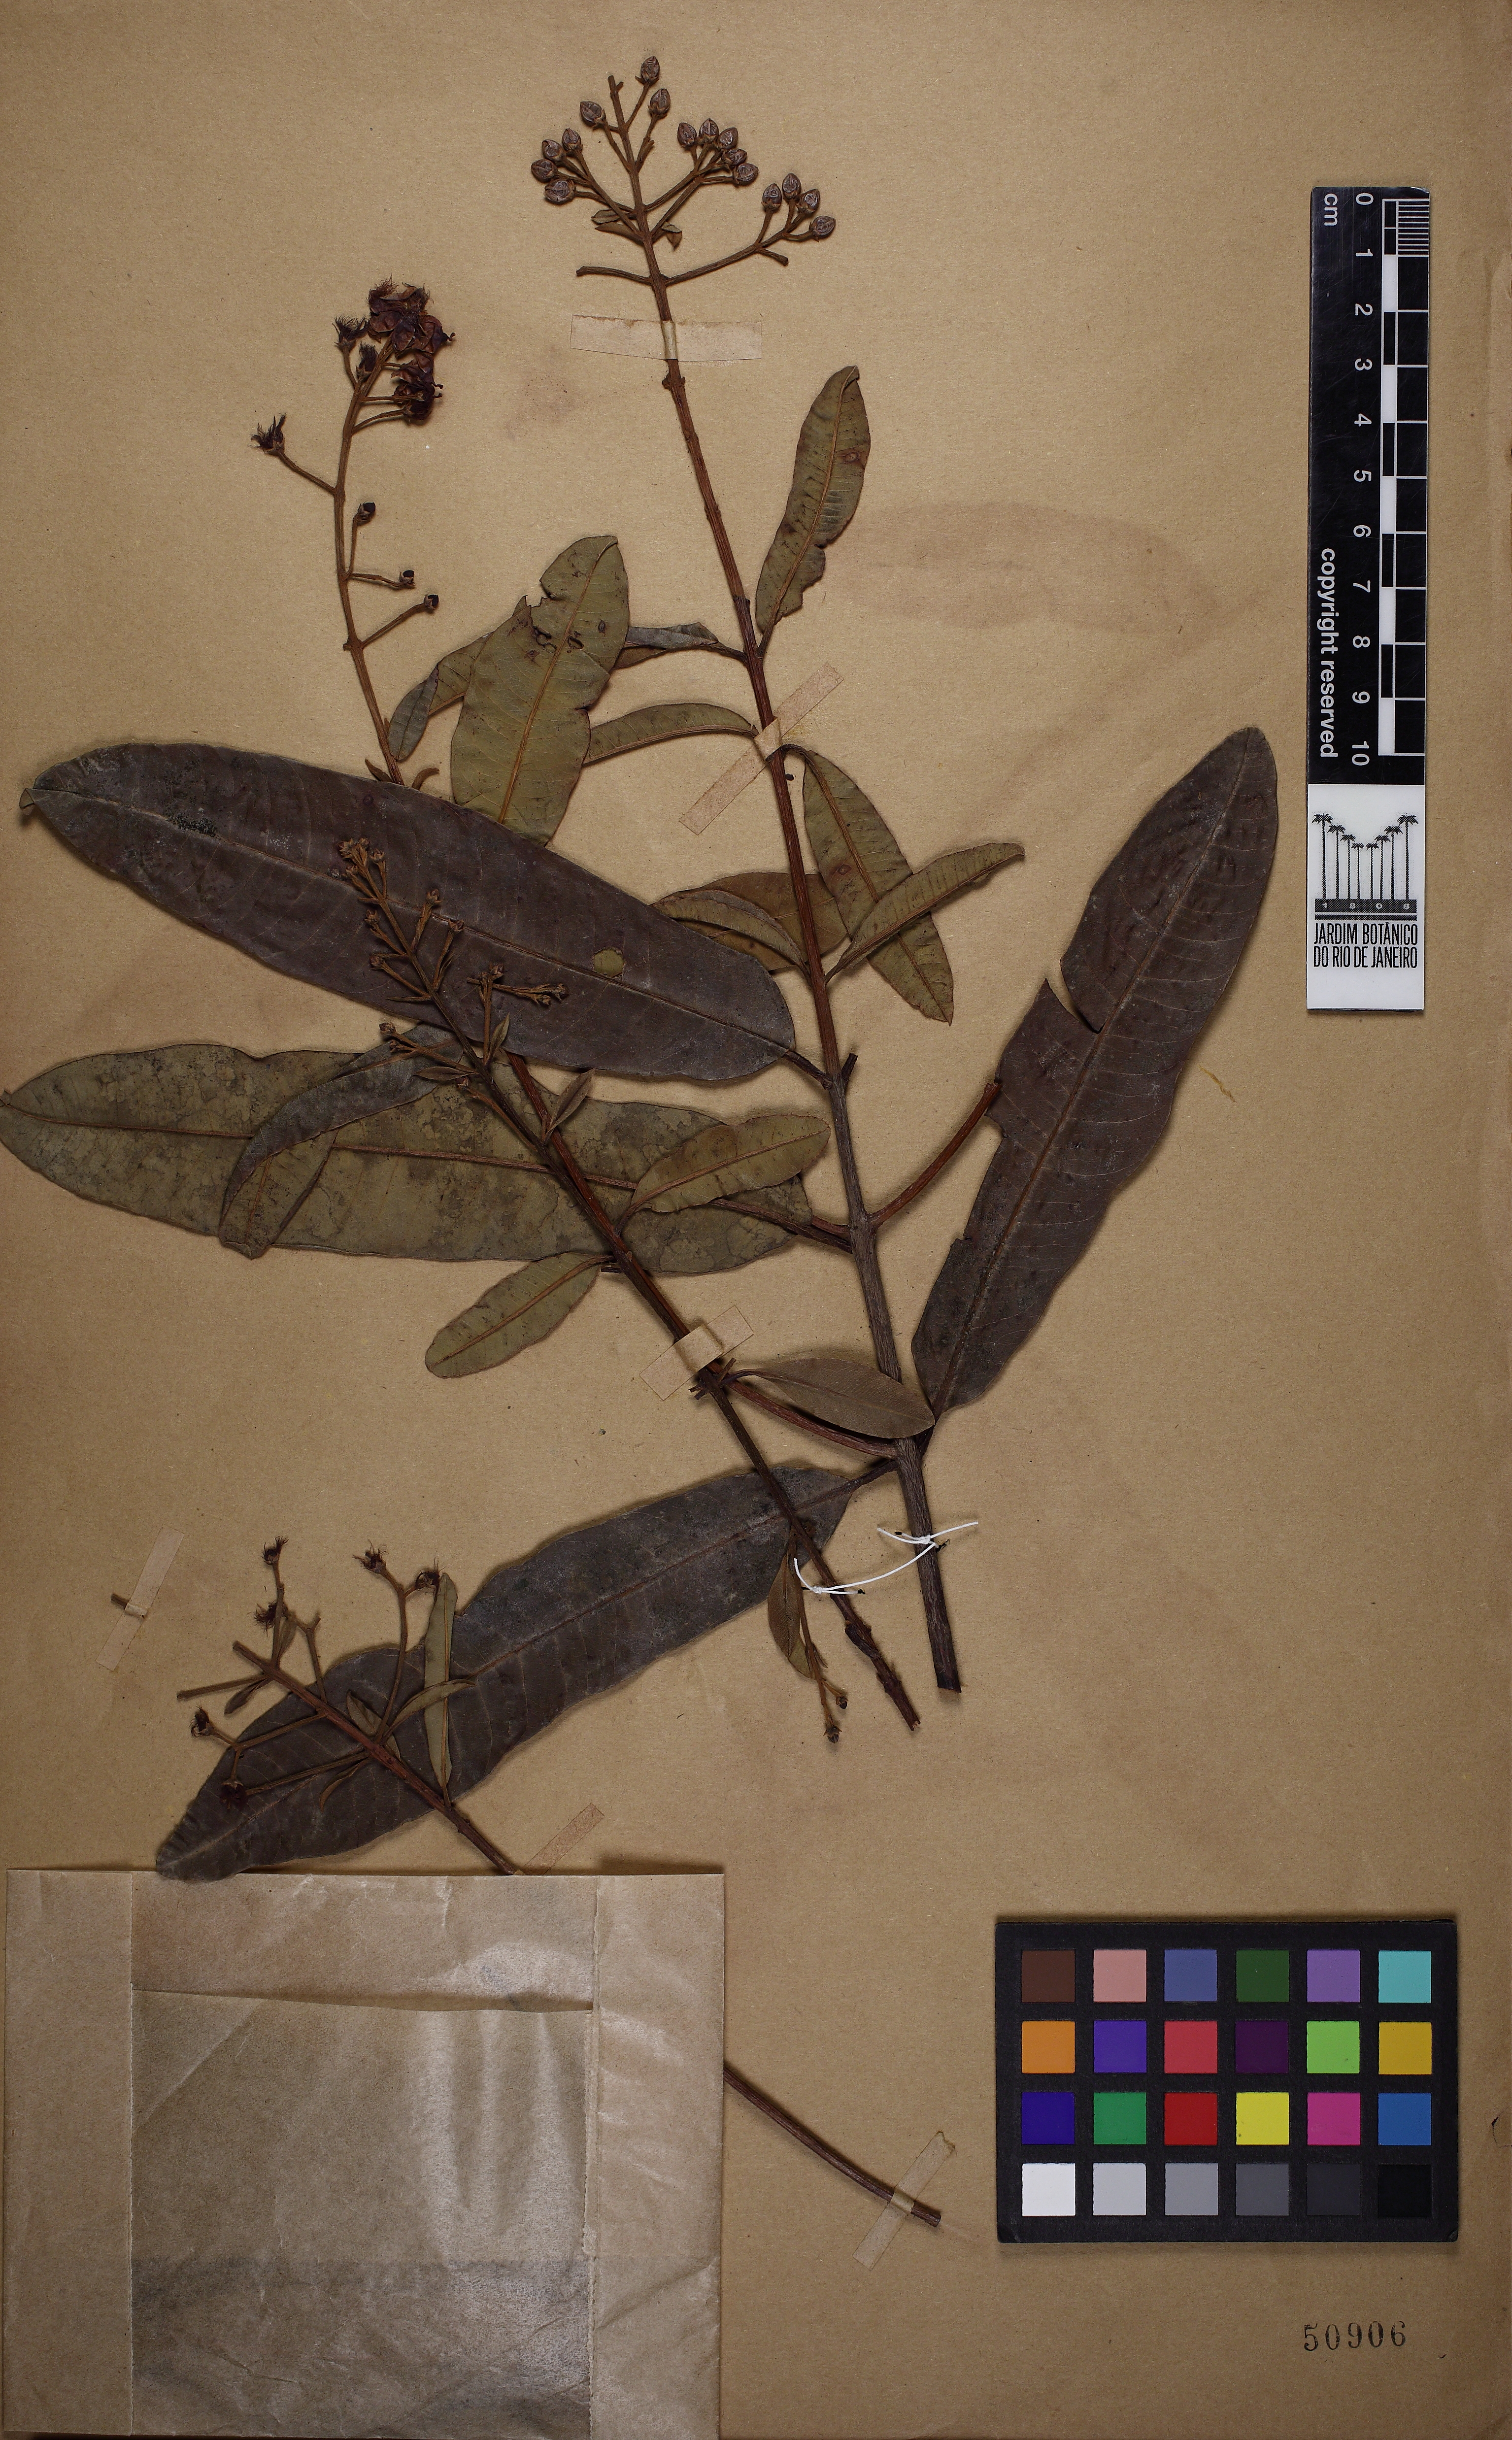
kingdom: Plantae
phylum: Tracheophyta
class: Magnoliopsida
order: Malpighiales
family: Calophyllaceae
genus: Haploclathra
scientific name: Haploclathra leiantha
